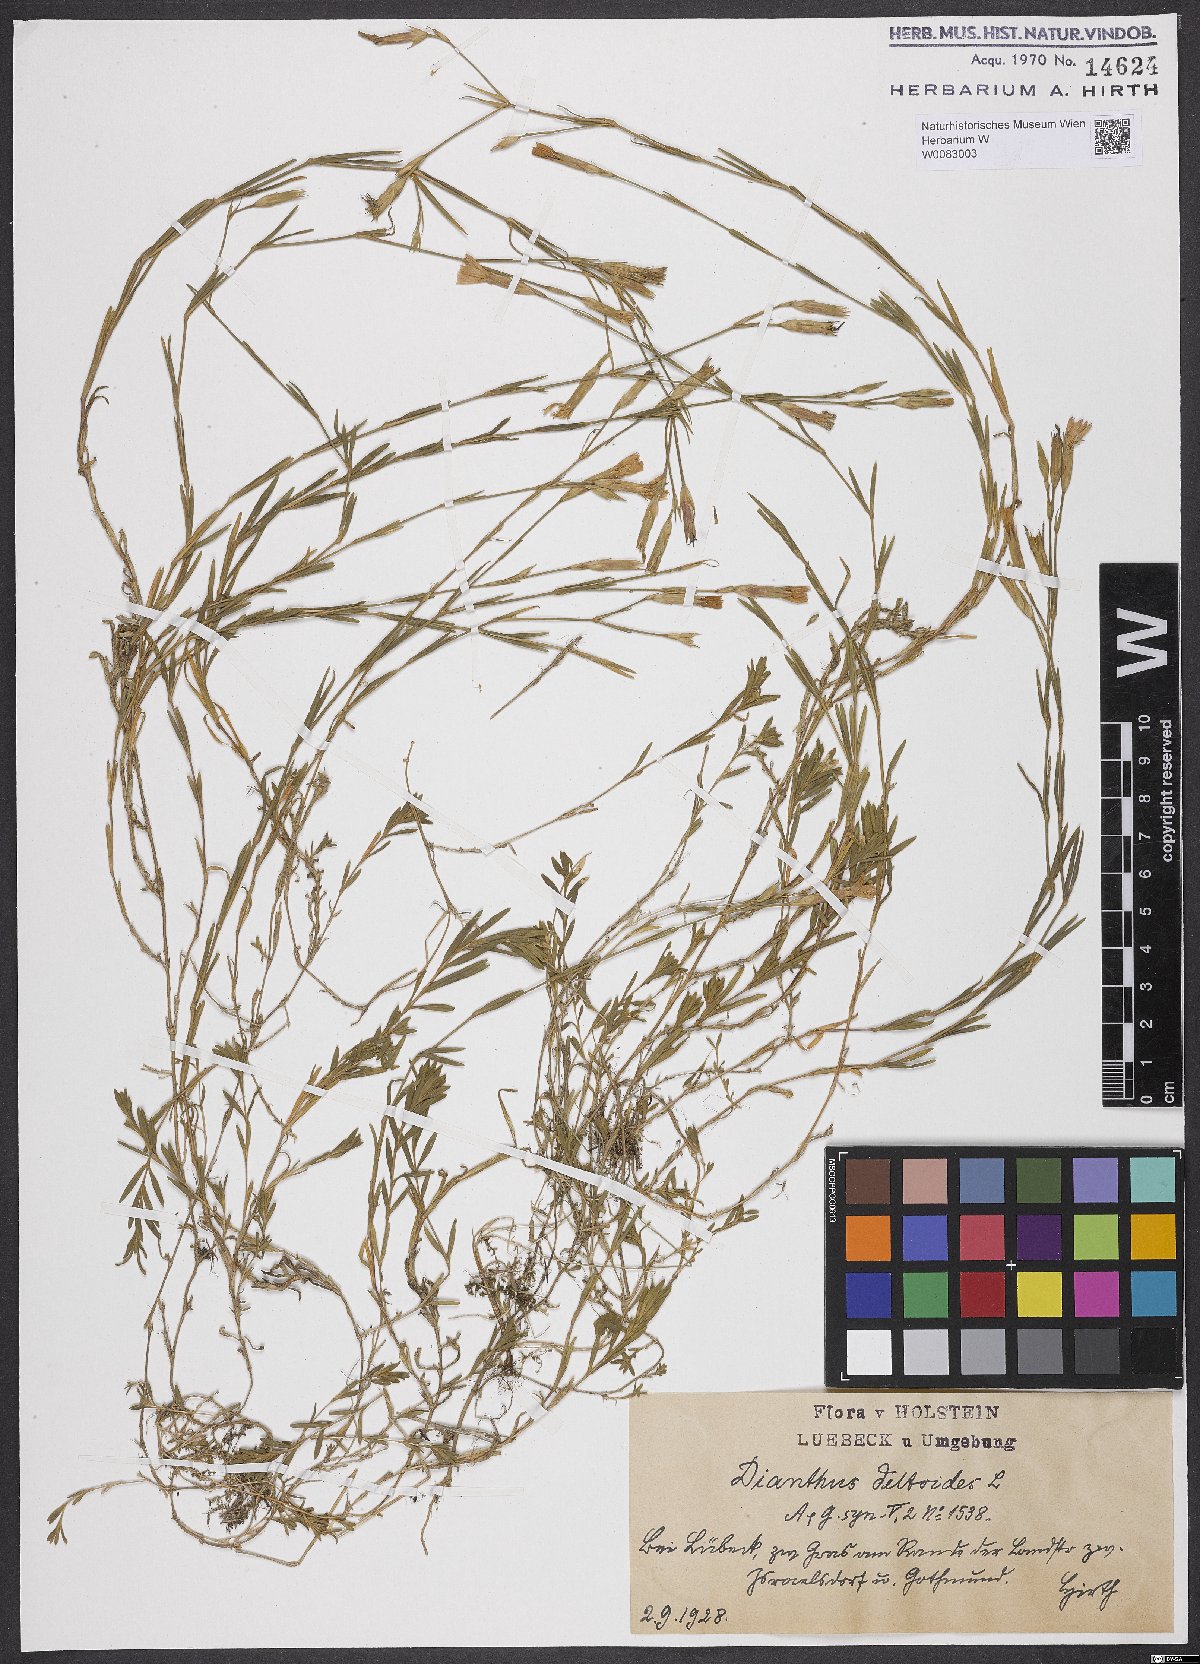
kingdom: Plantae
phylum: Tracheophyta
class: Magnoliopsida
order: Caryophyllales
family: Caryophyllaceae
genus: Dianthus
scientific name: Dianthus deltoides
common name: Maiden pink
